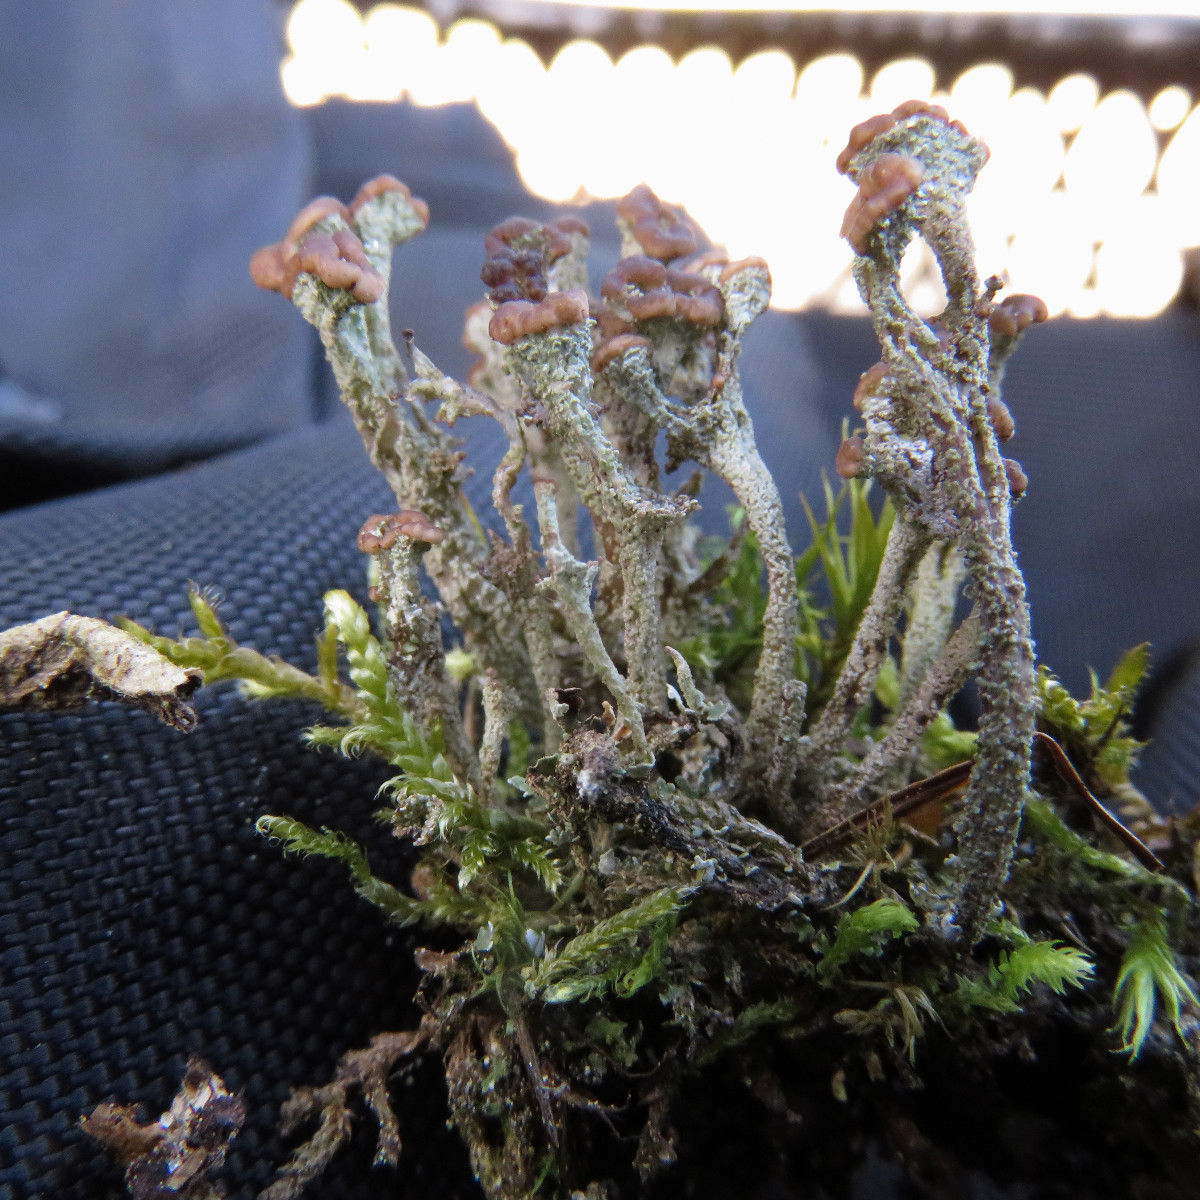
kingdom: Fungi
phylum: Ascomycota
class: Lecanoromycetes
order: Lecanorales
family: Cladoniaceae
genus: Cladonia
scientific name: Cladonia ramulosa
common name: kliddet bægerlav
